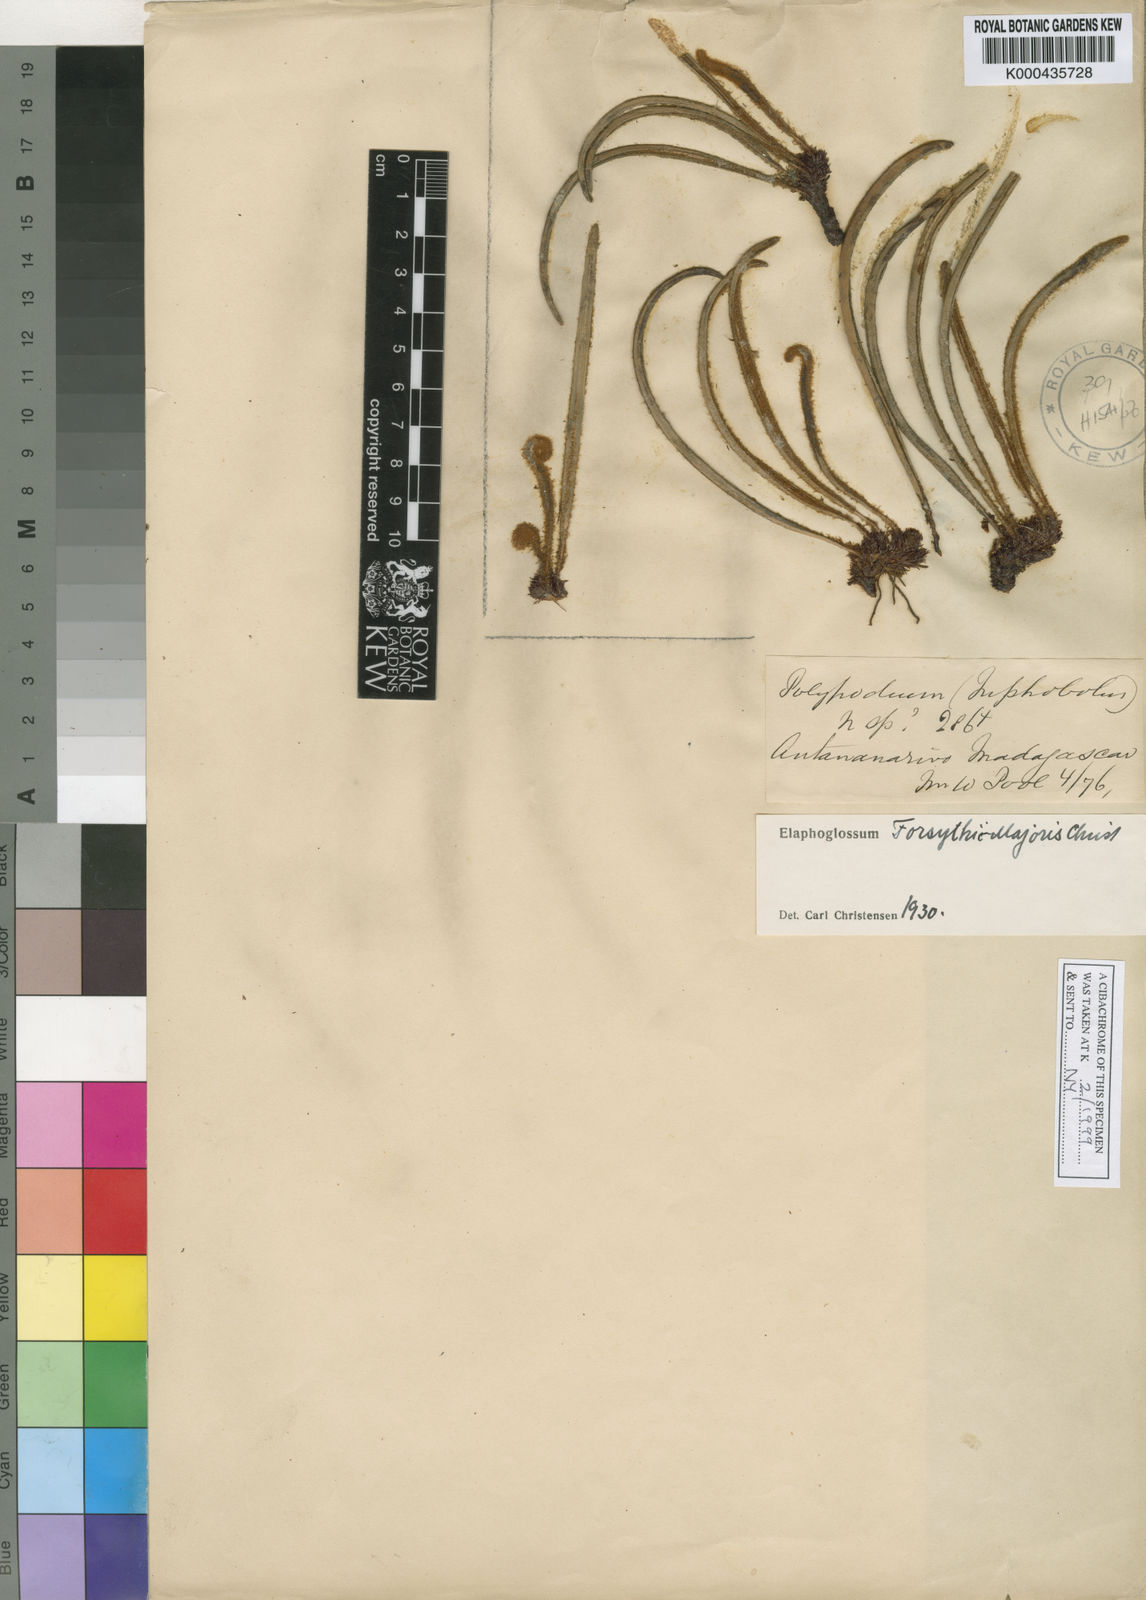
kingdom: Plantae
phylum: Tracheophyta
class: Polypodiopsida
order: Polypodiales
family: Dryopteridaceae
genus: Elaphoglossum
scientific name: Elaphoglossum forsythii-majoris
